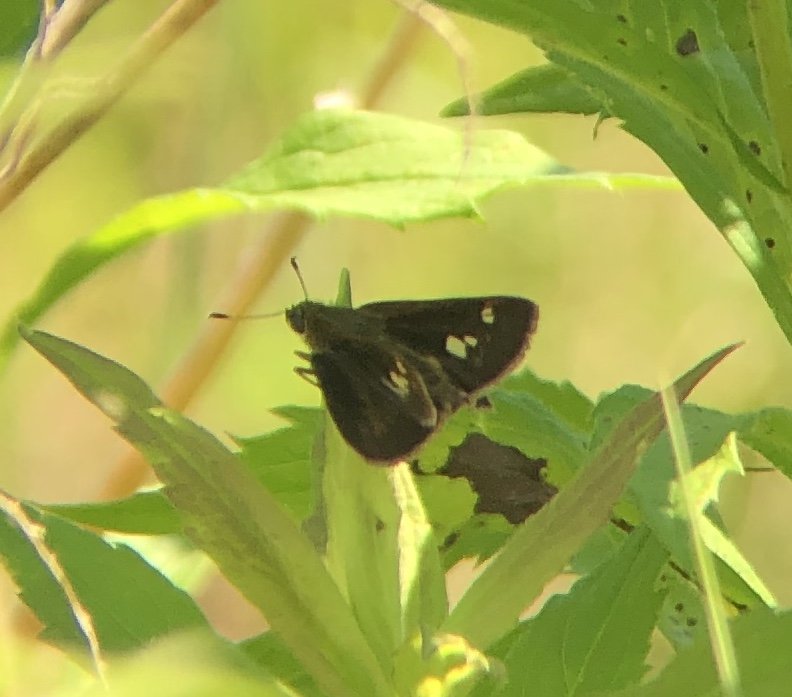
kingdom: Animalia
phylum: Arthropoda
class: Insecta
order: Lepidoptera
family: Hesperiidae
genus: Vernia
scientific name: Vernia verna
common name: Little Glassywing
